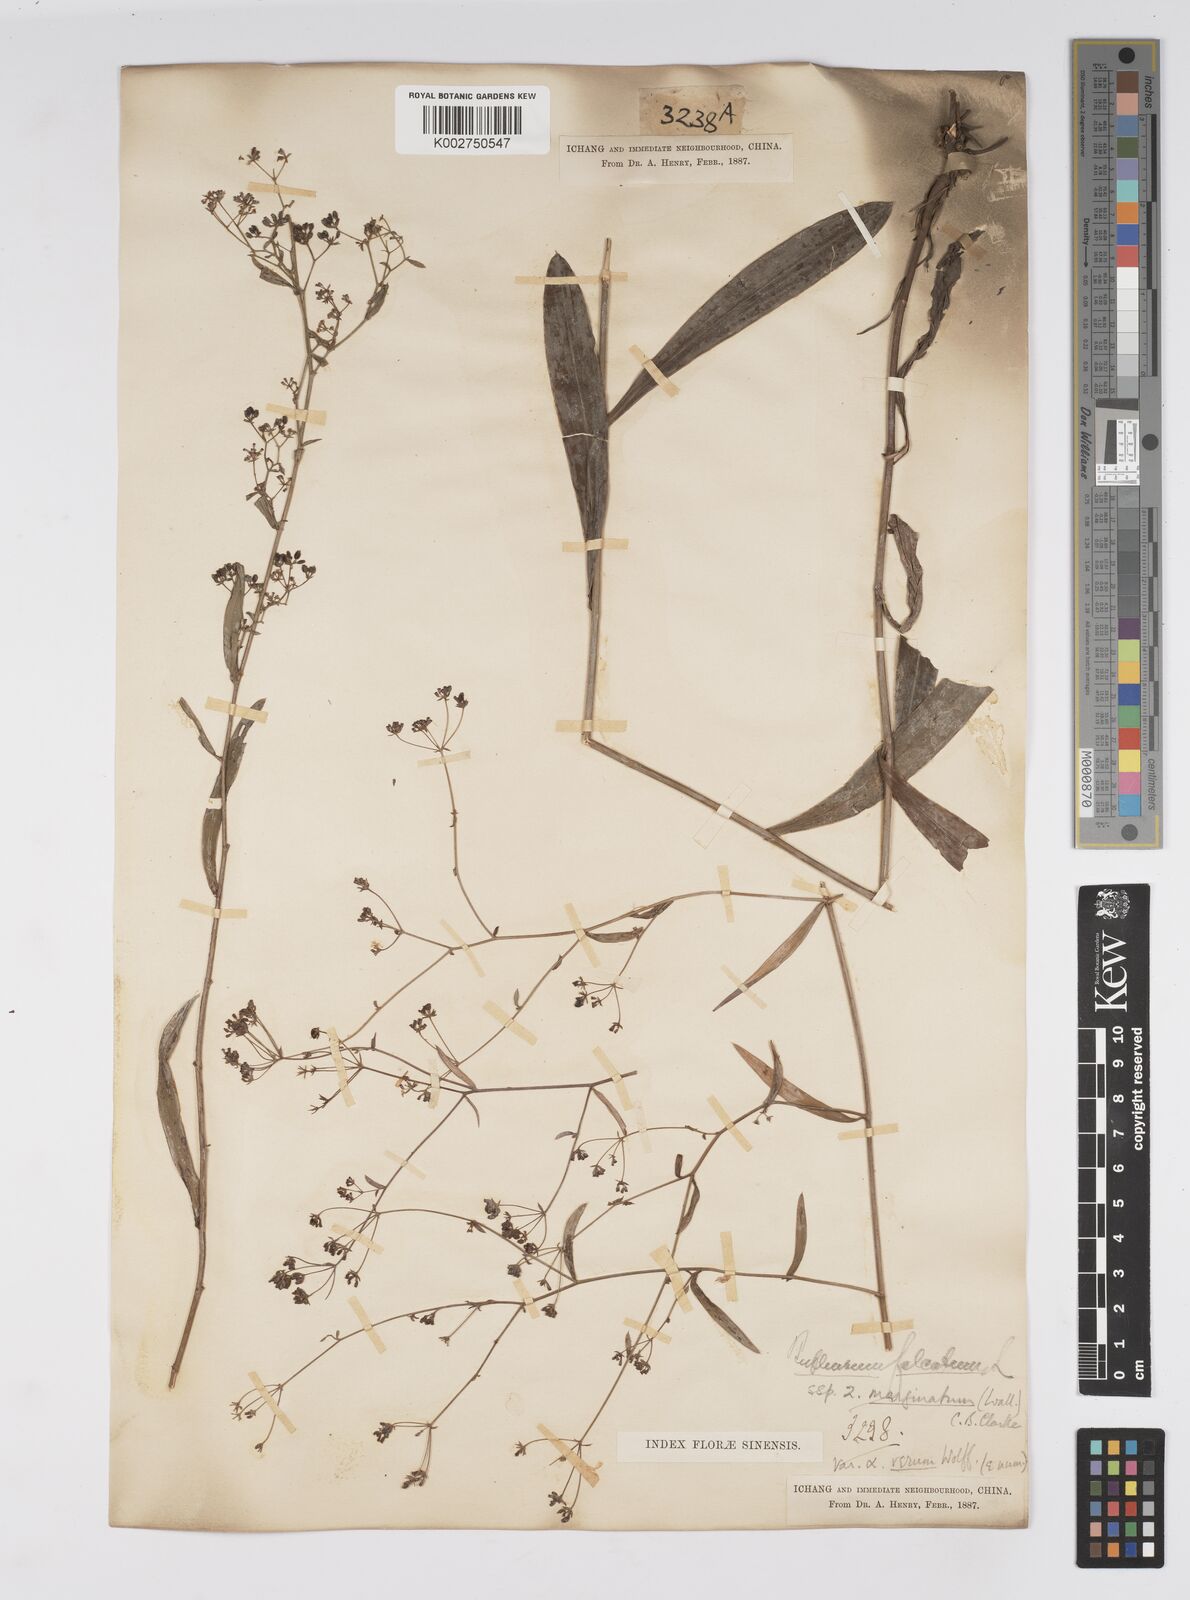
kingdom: Plantae
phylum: Tracheophyta
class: Magnoliopsida
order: Apiales
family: Apiaceae
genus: Bupleurum
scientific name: Bupleurum marginatum
